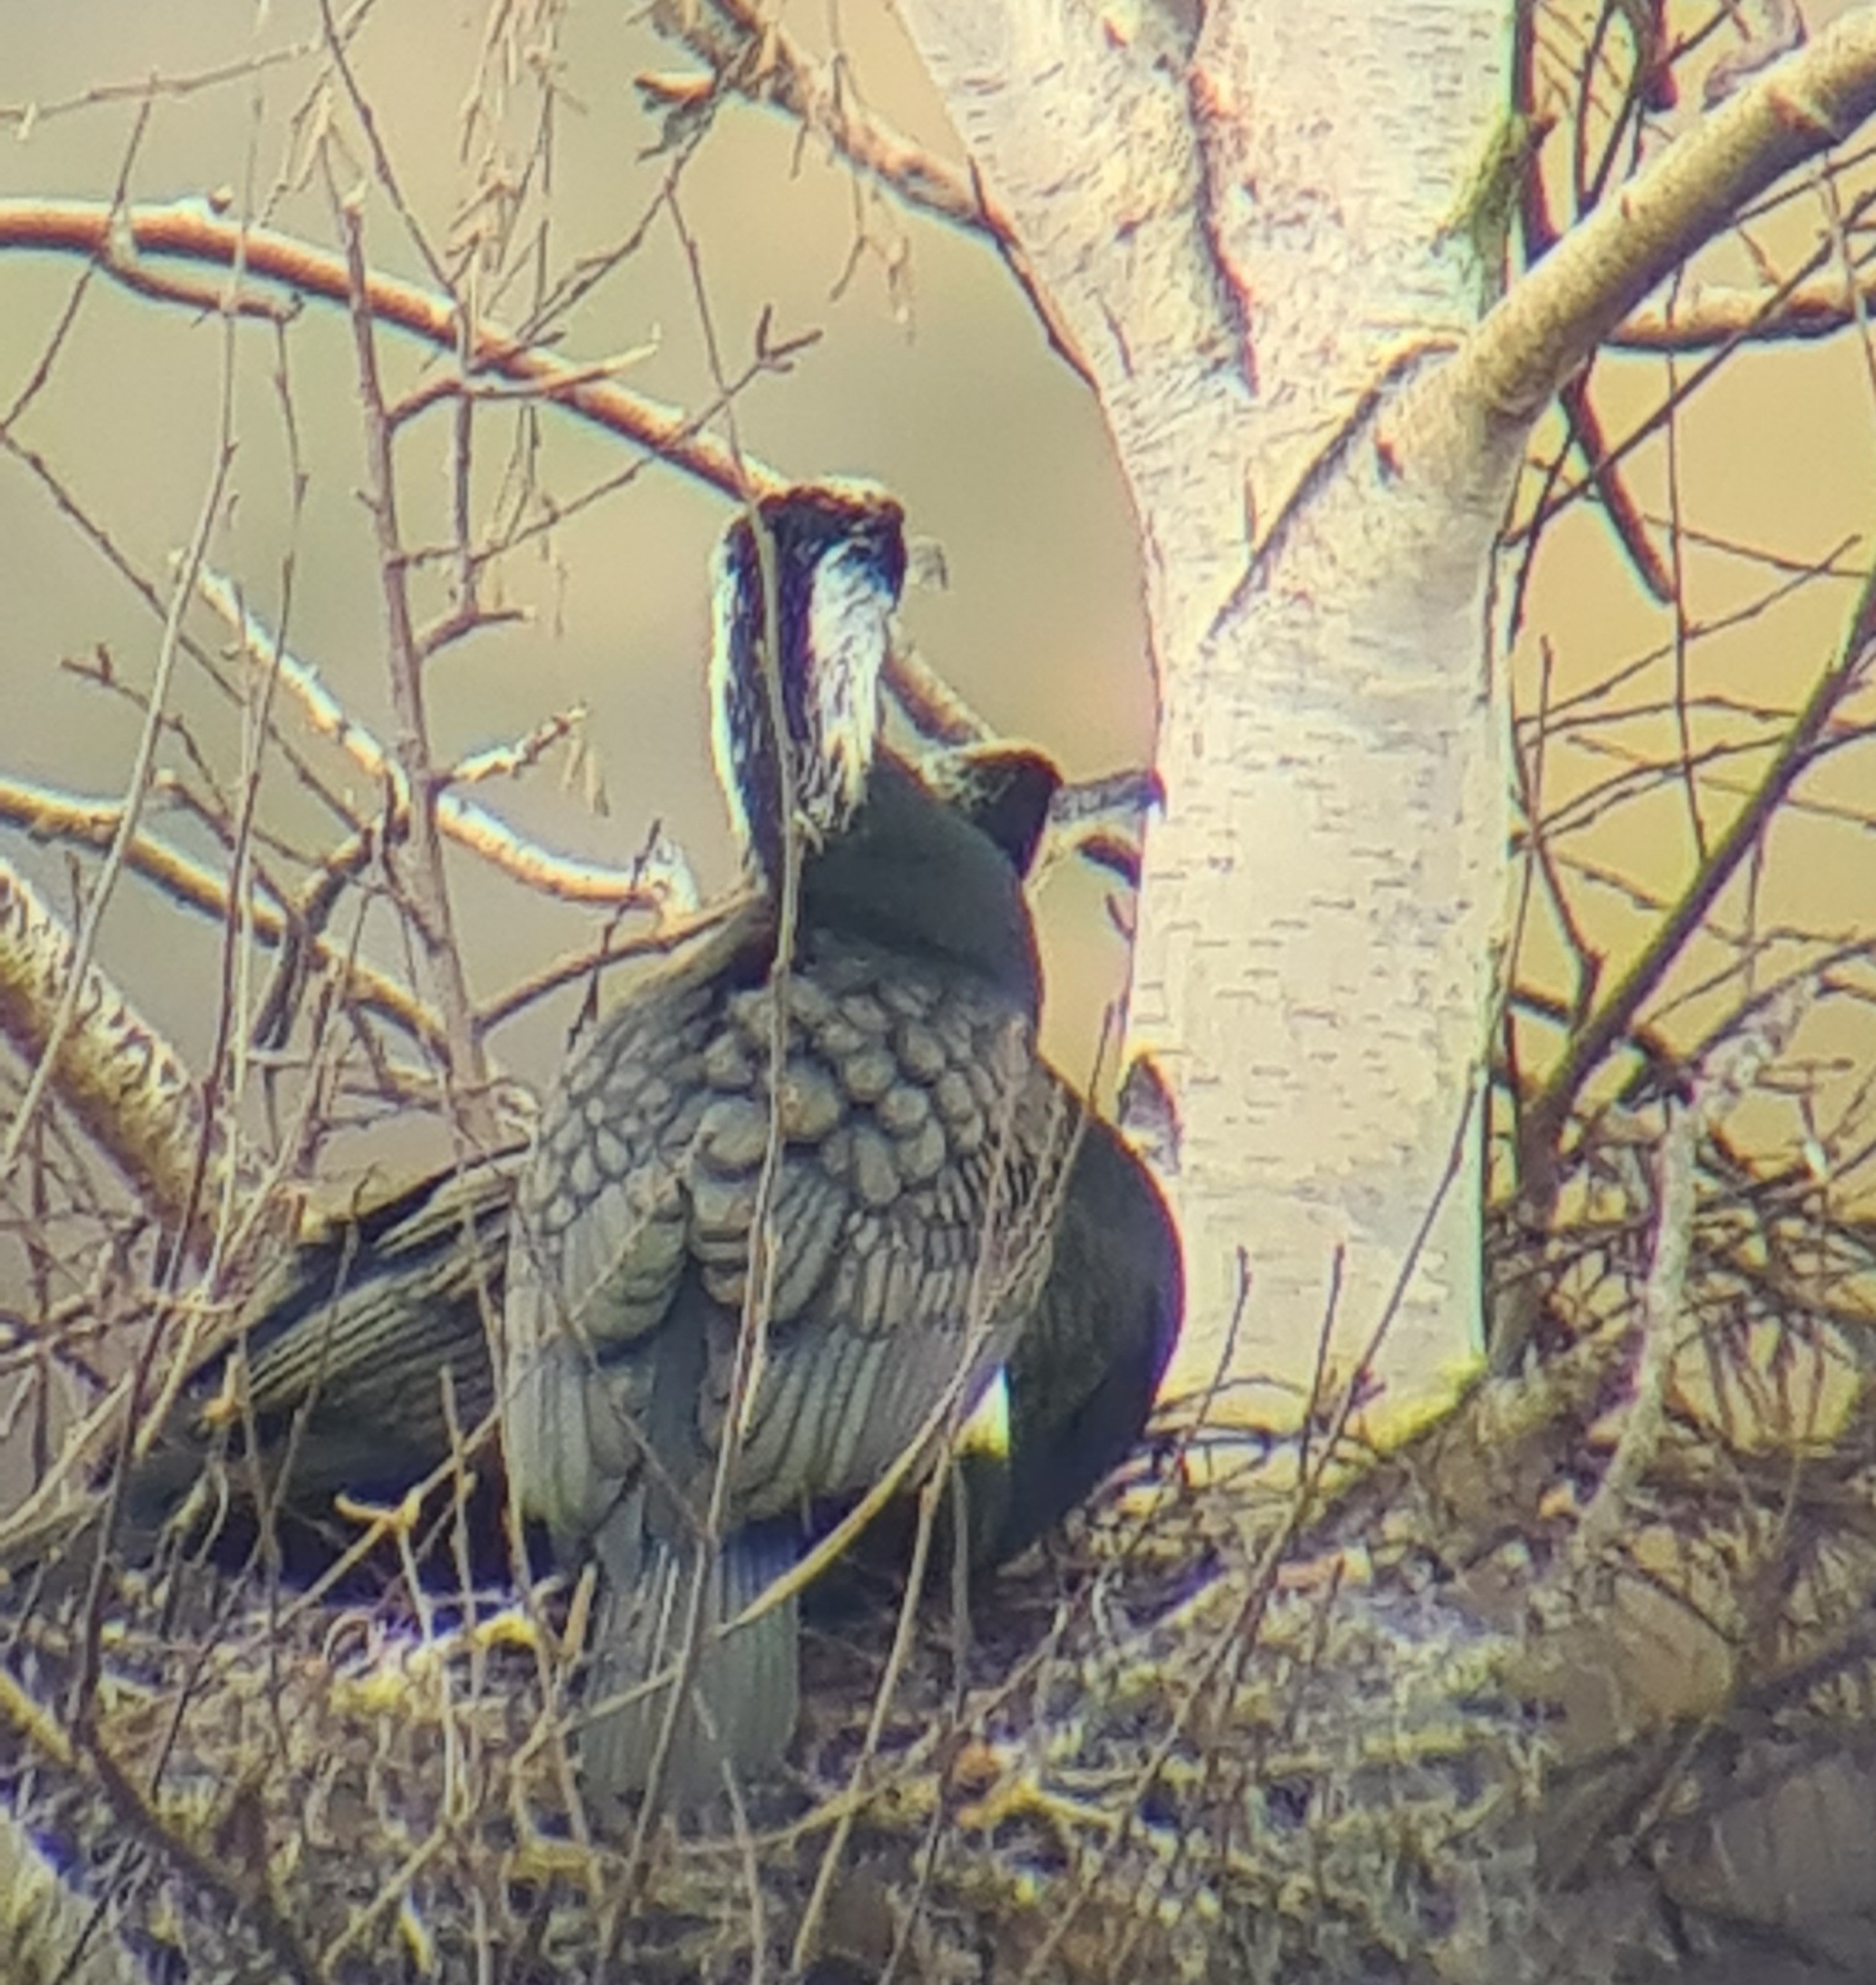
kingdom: Animalia
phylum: Chordata
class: Aves
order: Suliformes
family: Phalacrocoracidae
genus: Phalacrocorax
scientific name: Phalacrocorax carbo
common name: Skarv
